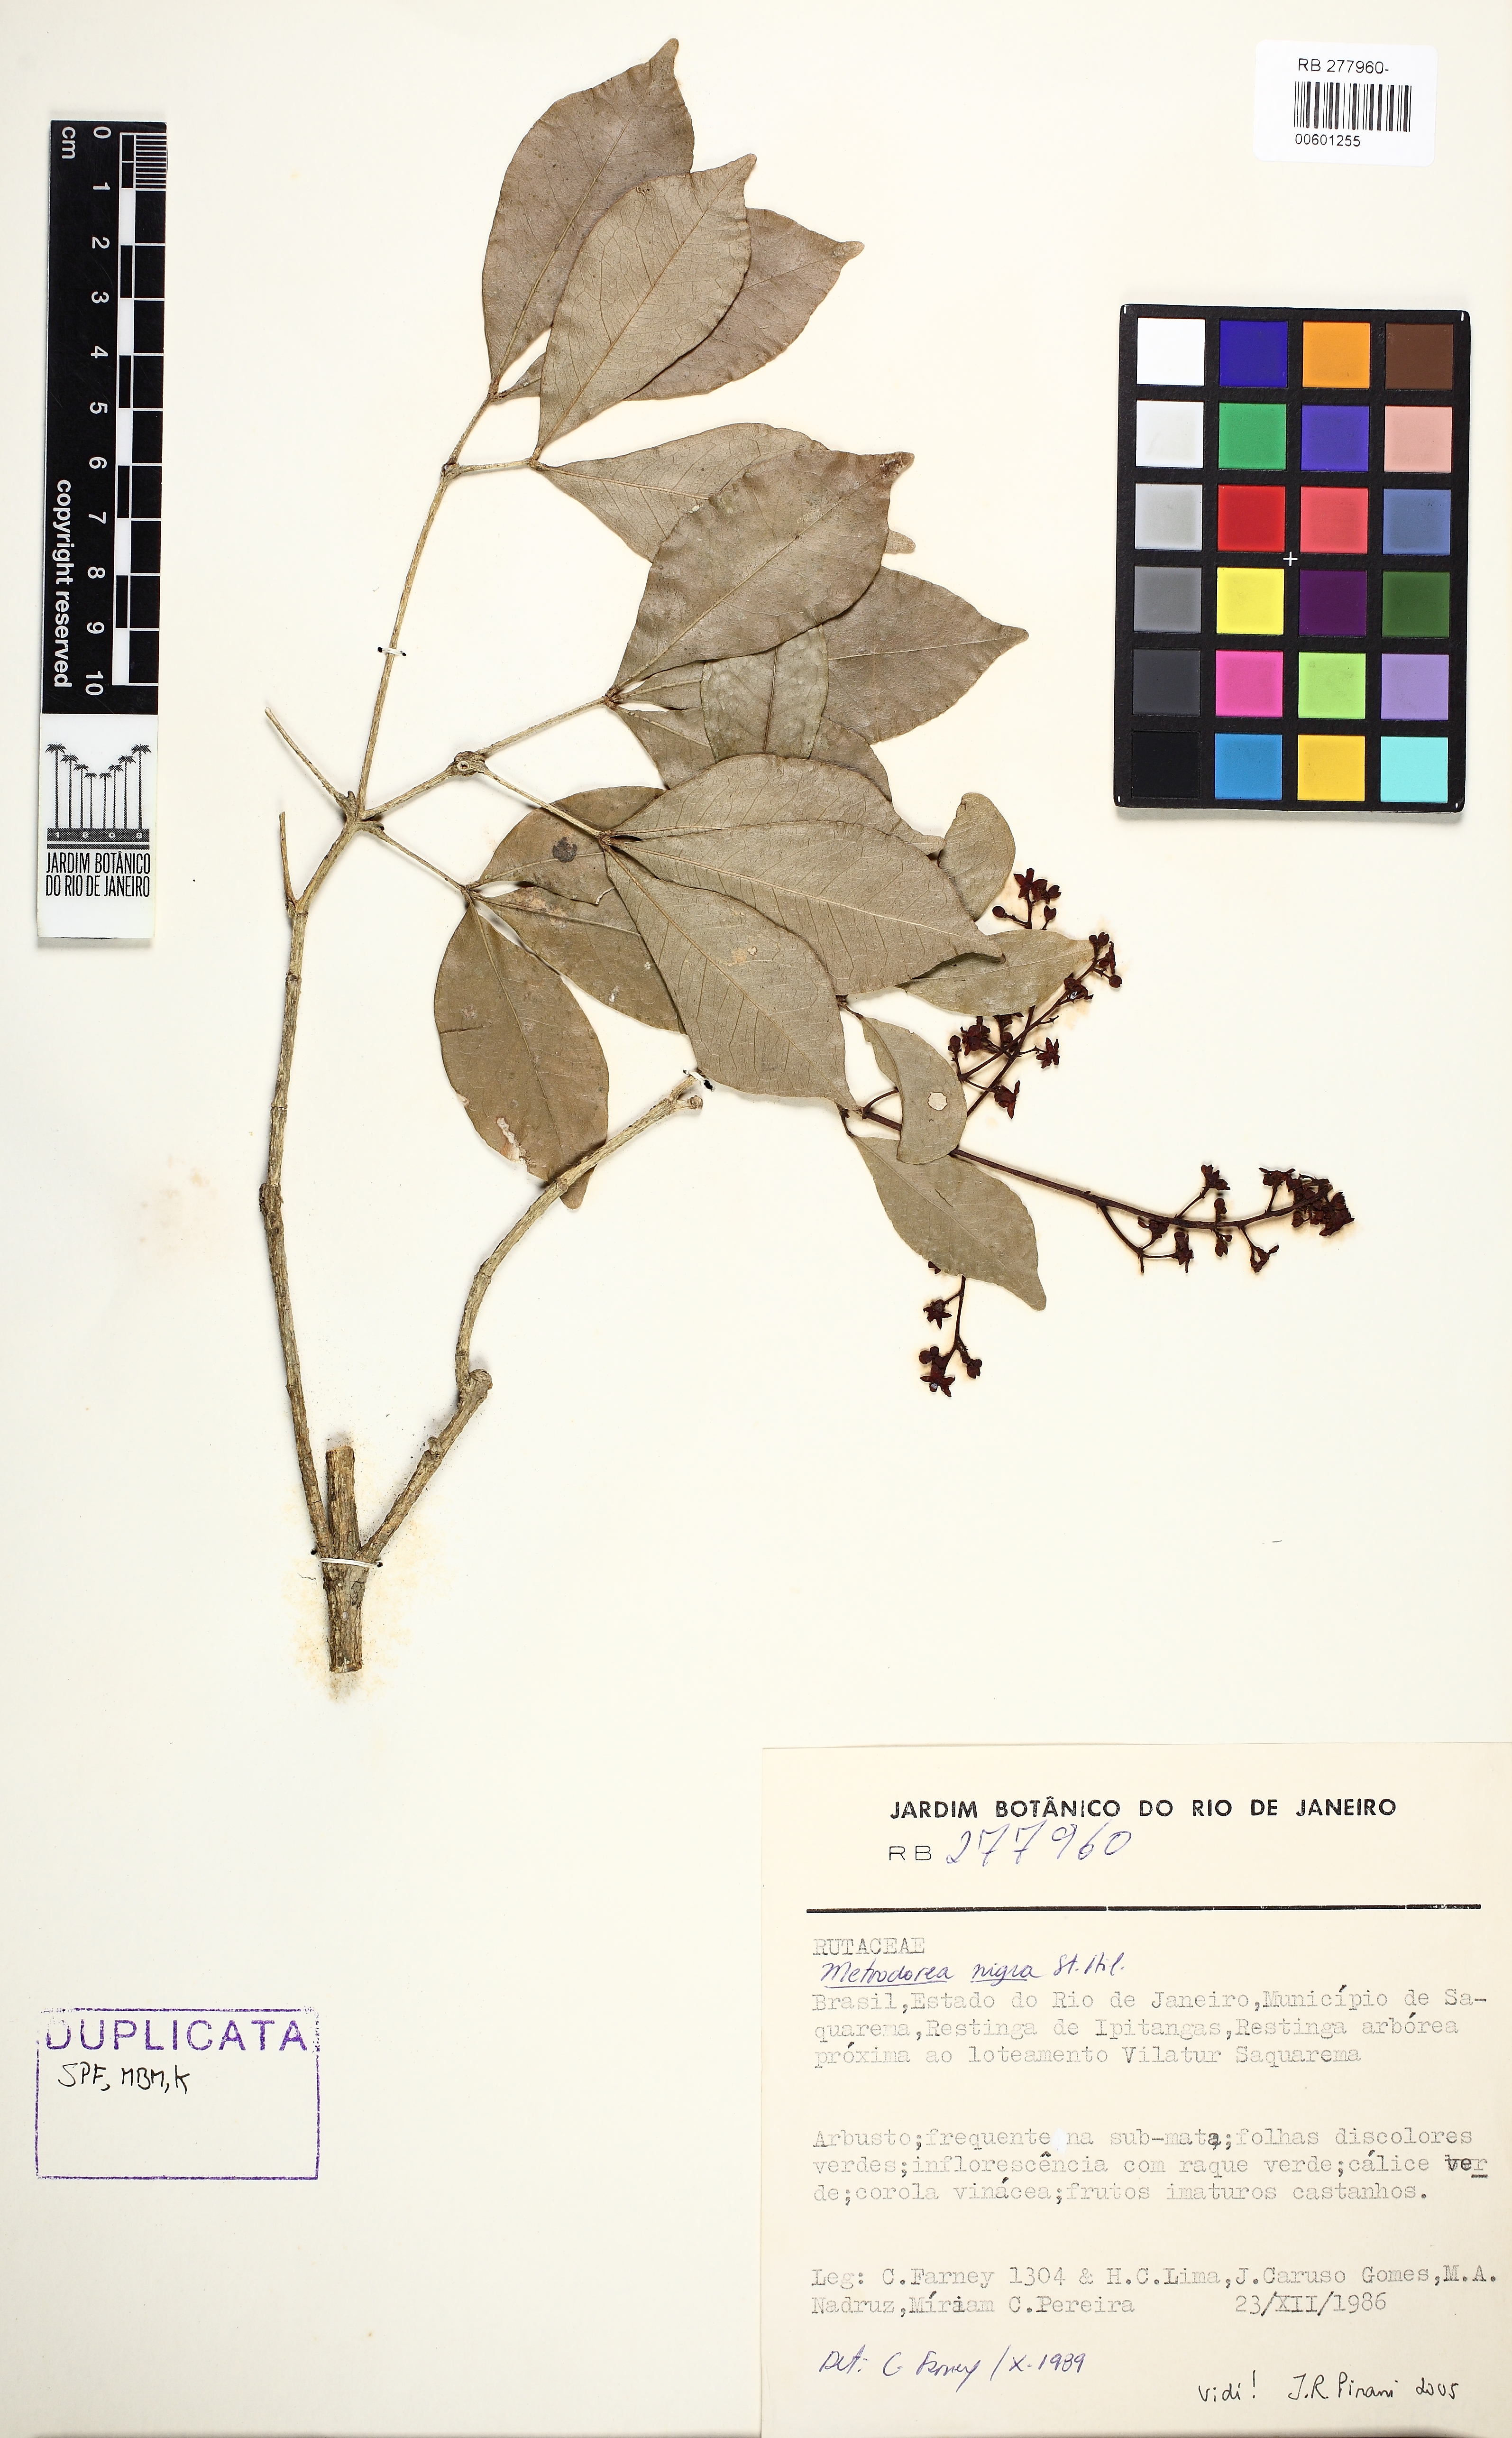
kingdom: Plantae
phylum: Tracheophyta
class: Magnoliopsida
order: Sapindales
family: Rutaceae
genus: Metrodorea
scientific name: Metrodorea nigra
